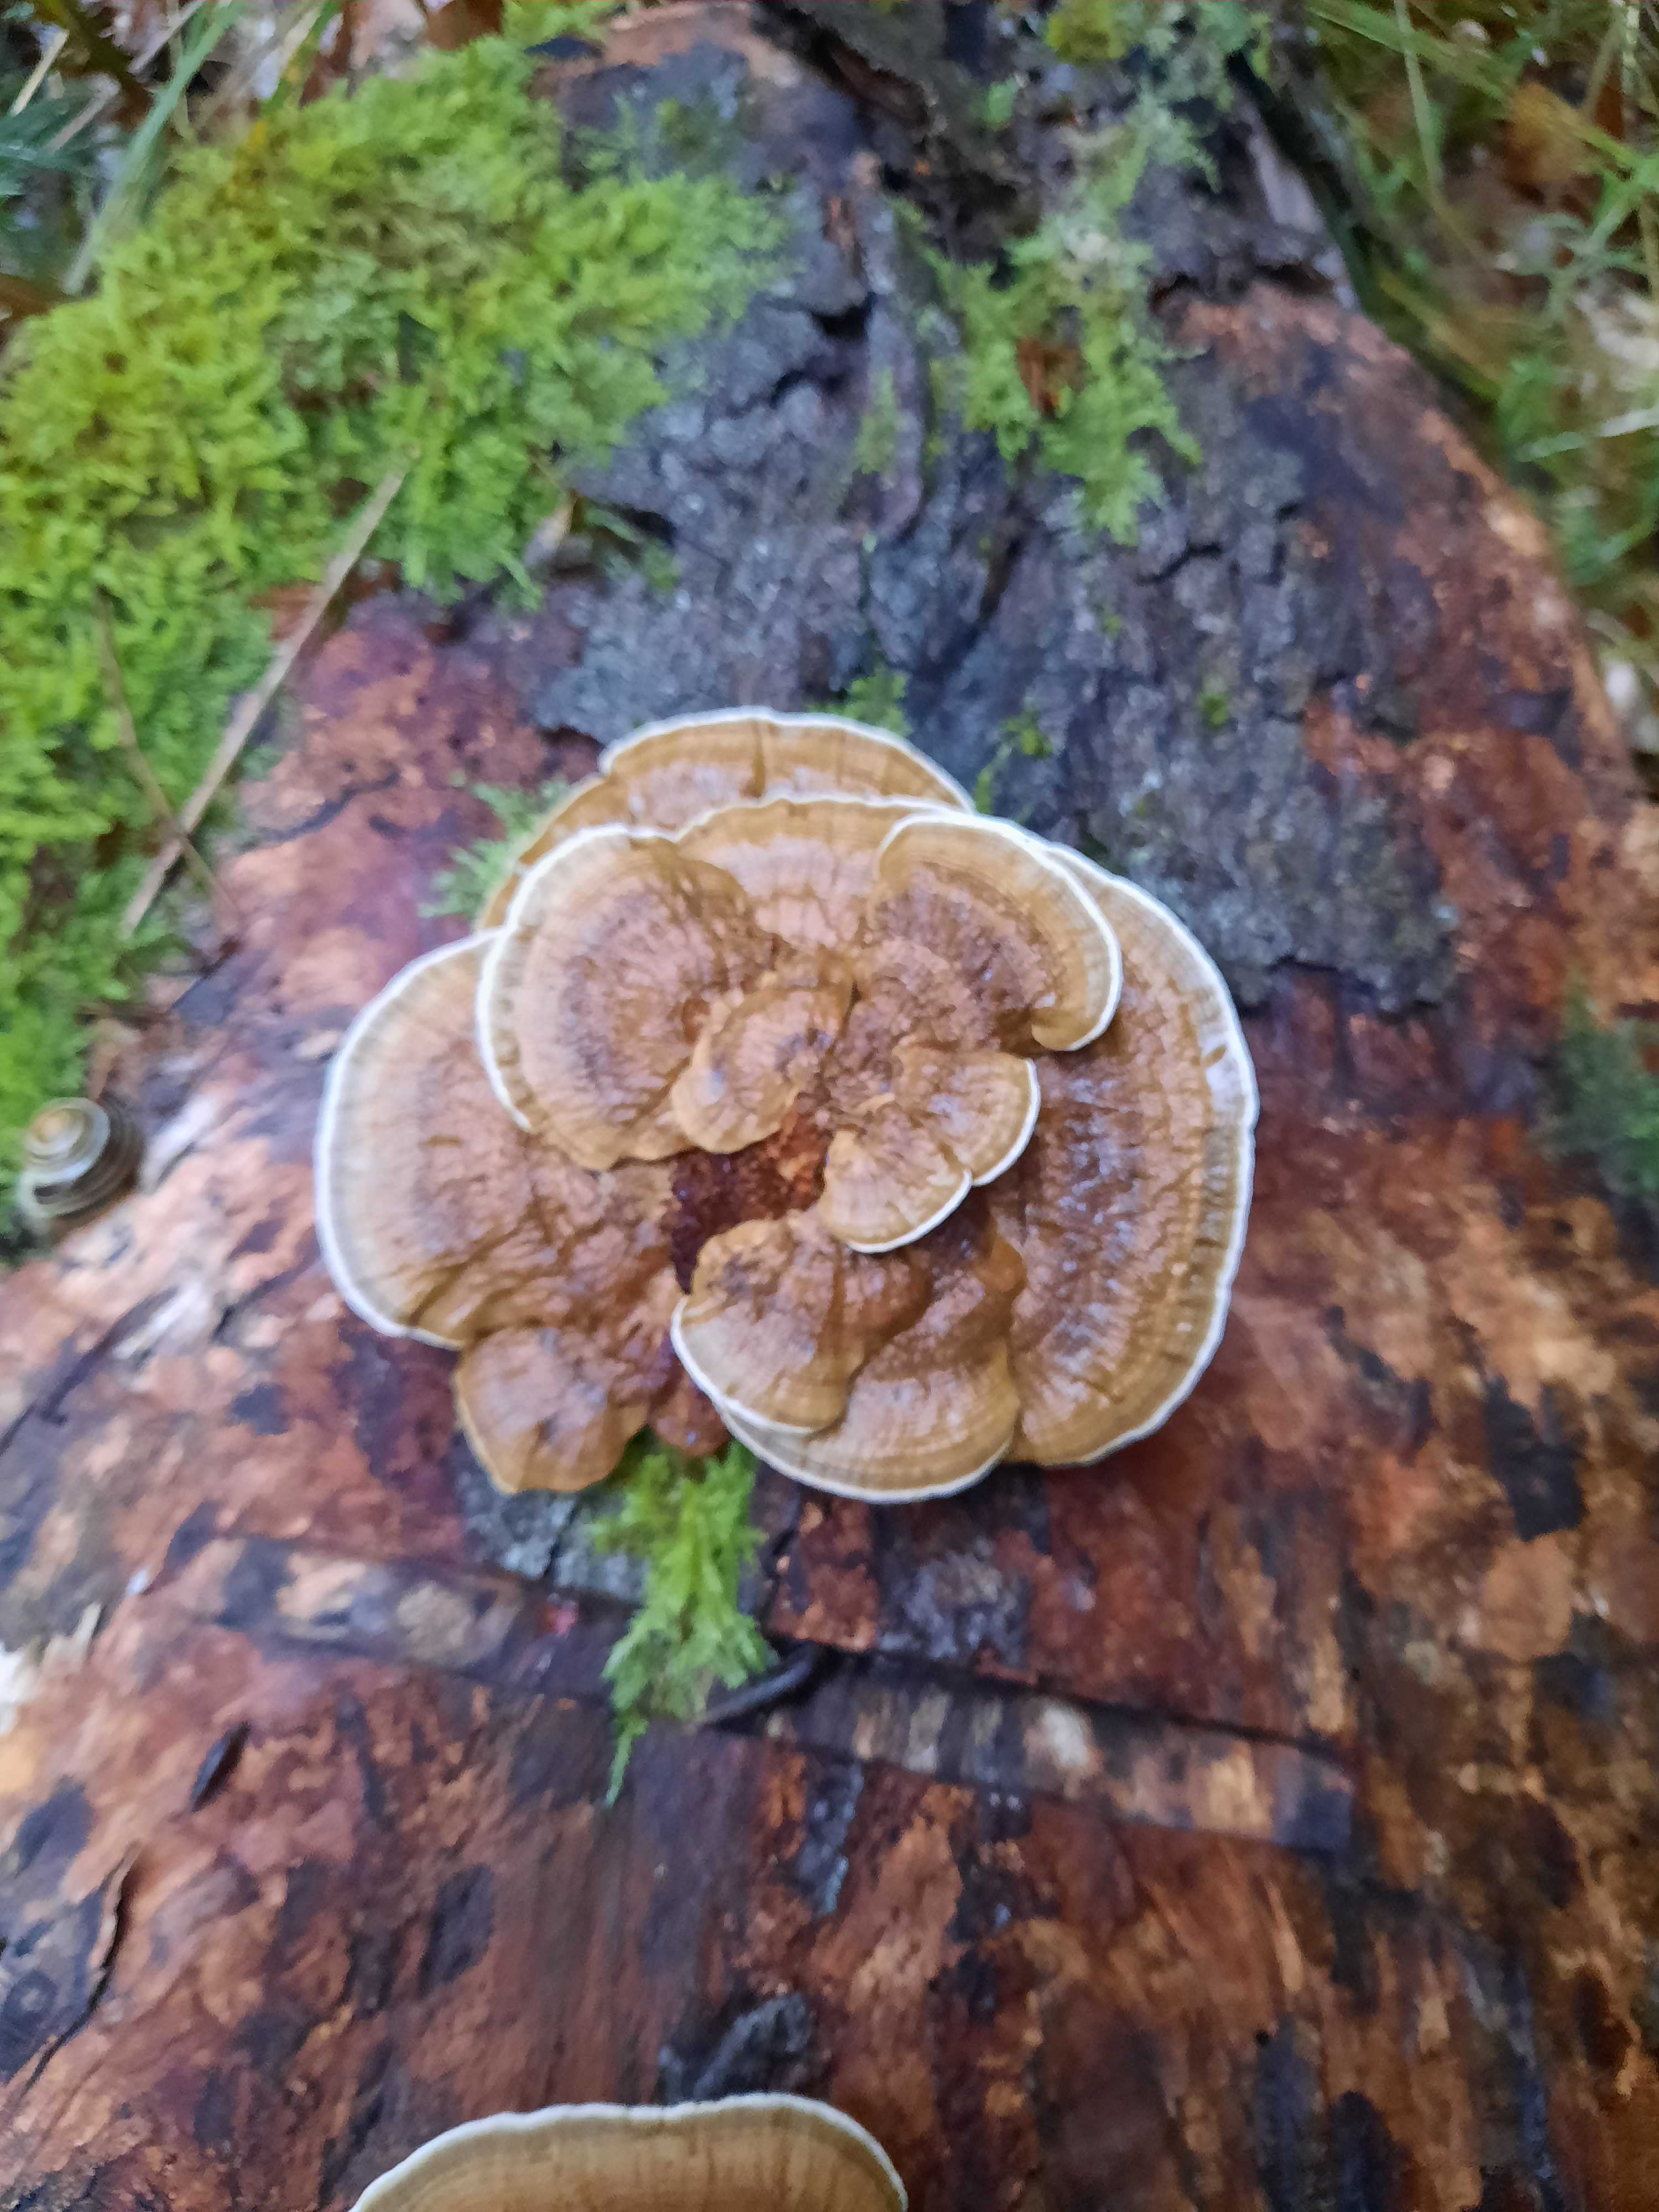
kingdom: Fungi
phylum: Basidiomycota
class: Agaricomycetes
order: Polyporales
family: Polyporaceae
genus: Daedaleopsis
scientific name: Daedaleopsis confragosa
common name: rødmende læderporesvamp
